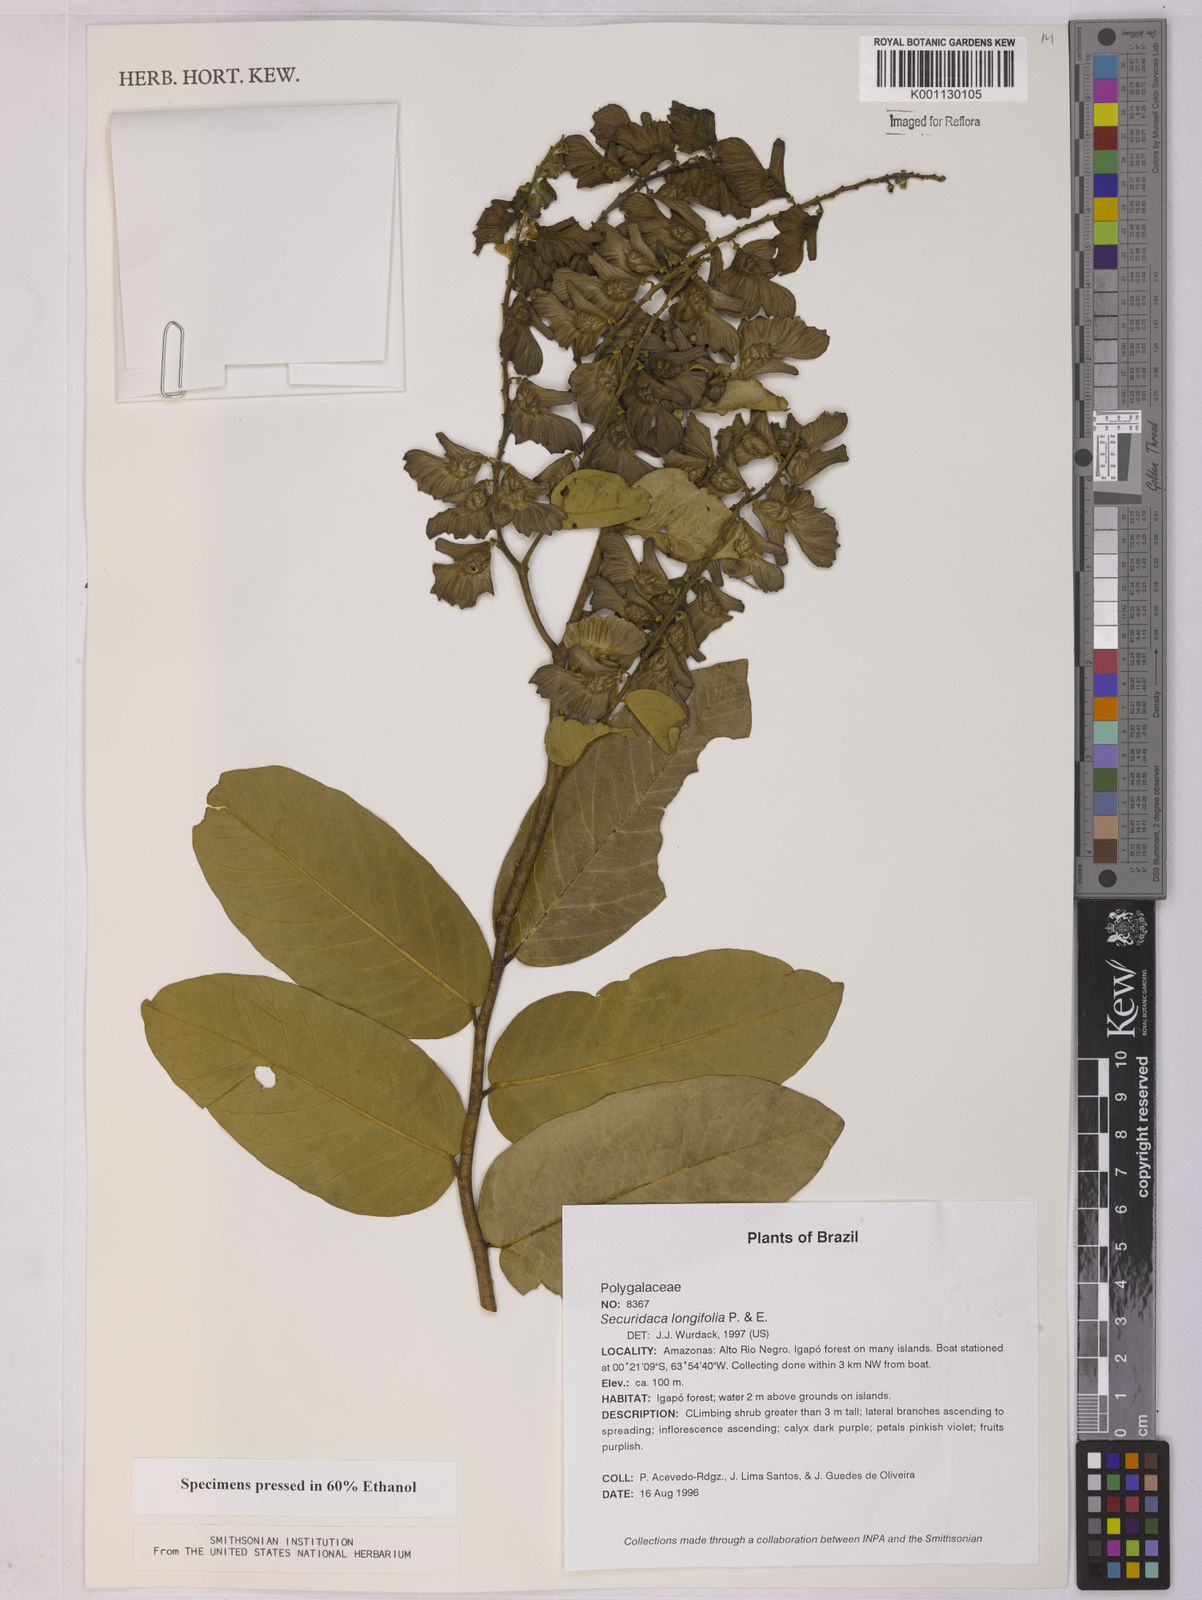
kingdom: Plantae
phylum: Tracheophyta
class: Magnoliopsida
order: Fabales
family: Polygalaceae
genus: Securidaca
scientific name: Securidaca longifolia
